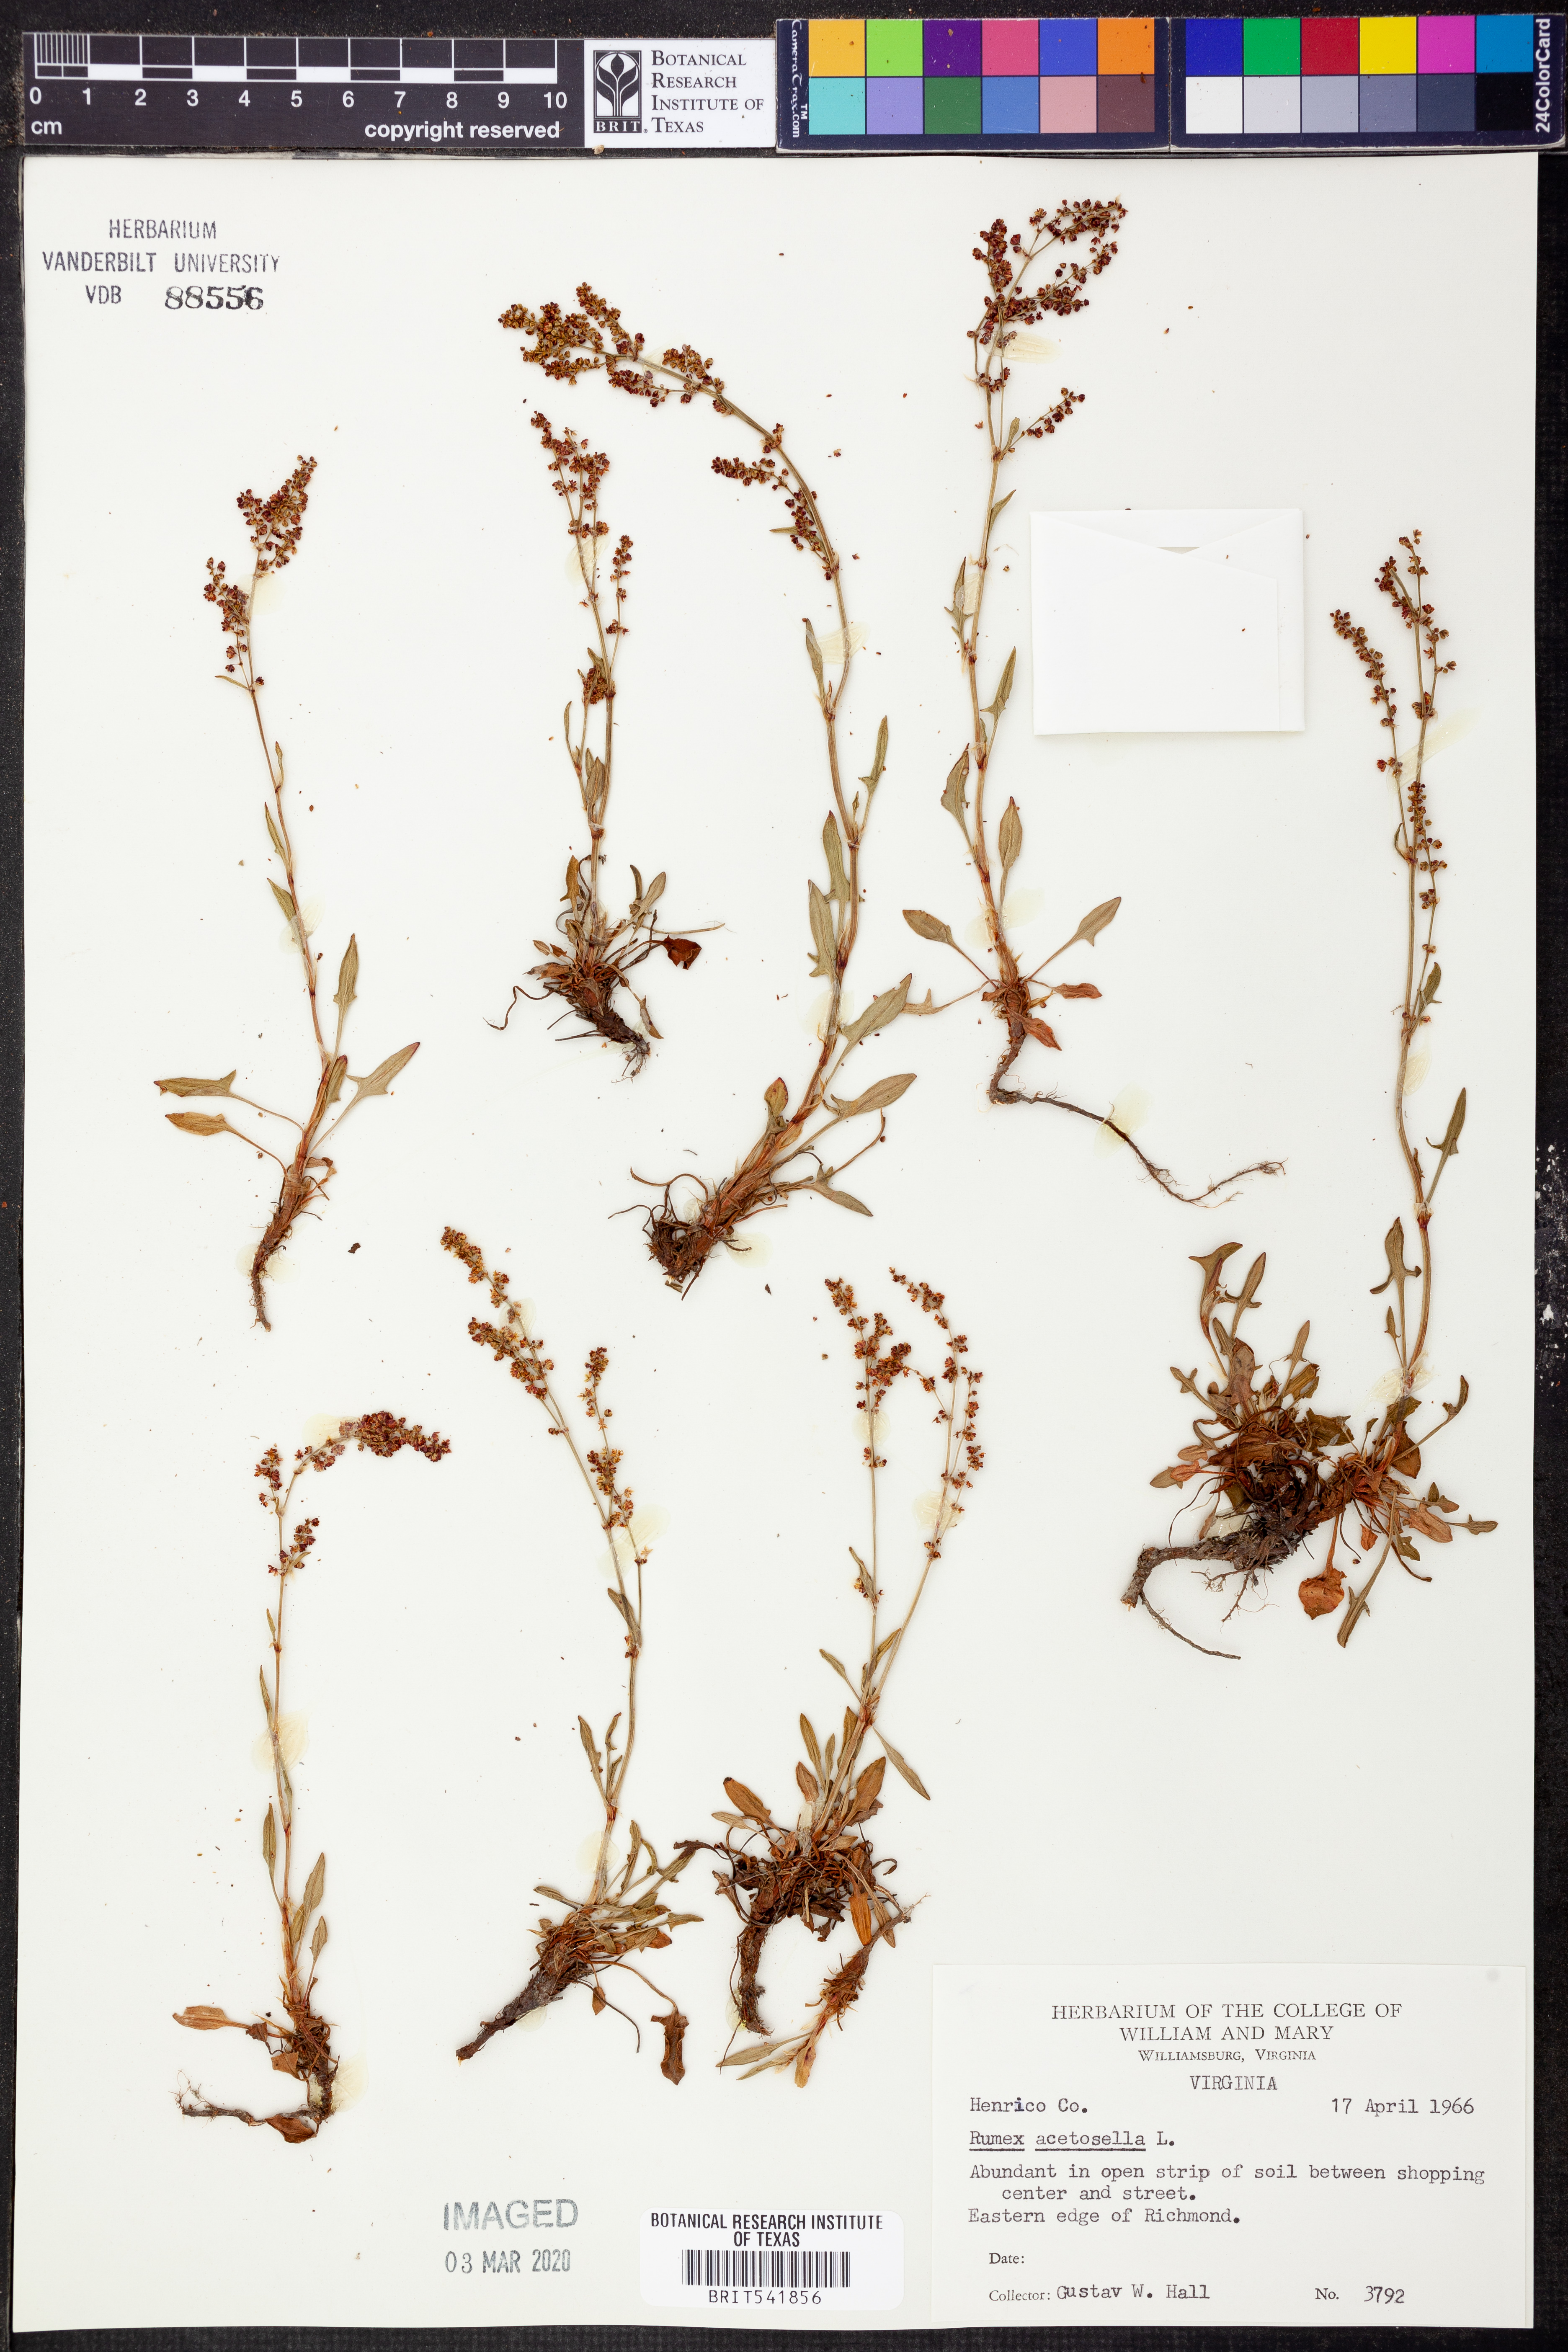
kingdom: Plantae
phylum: Tracheophyta
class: Magnoliopsida
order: Caryophyllales
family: Polygonaceae
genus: Rumex
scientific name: Rumex acetosella
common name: Common sheep sorrel
